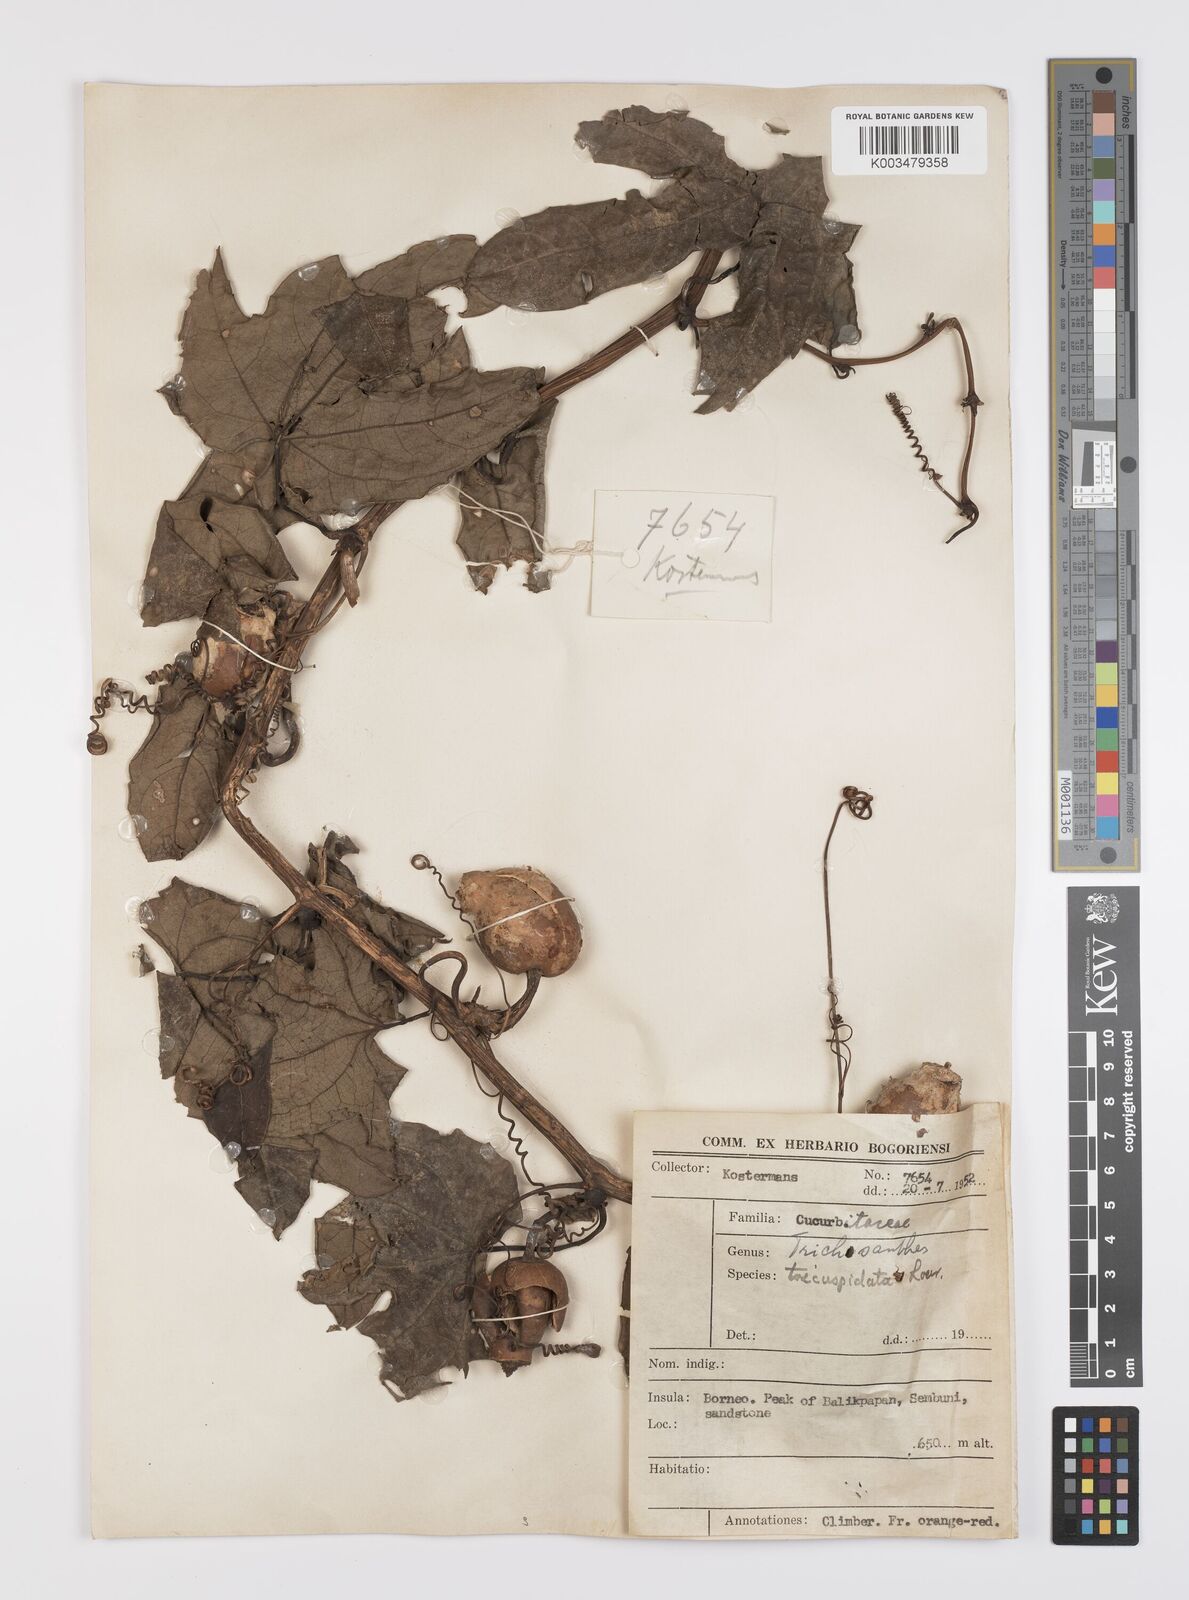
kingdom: Plantae
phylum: Tracheophyta
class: Magnoliopsida
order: Cucurbitales
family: Cucurbitaceae
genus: Trichosanthes
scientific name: Trichosanthes tricuspidata
